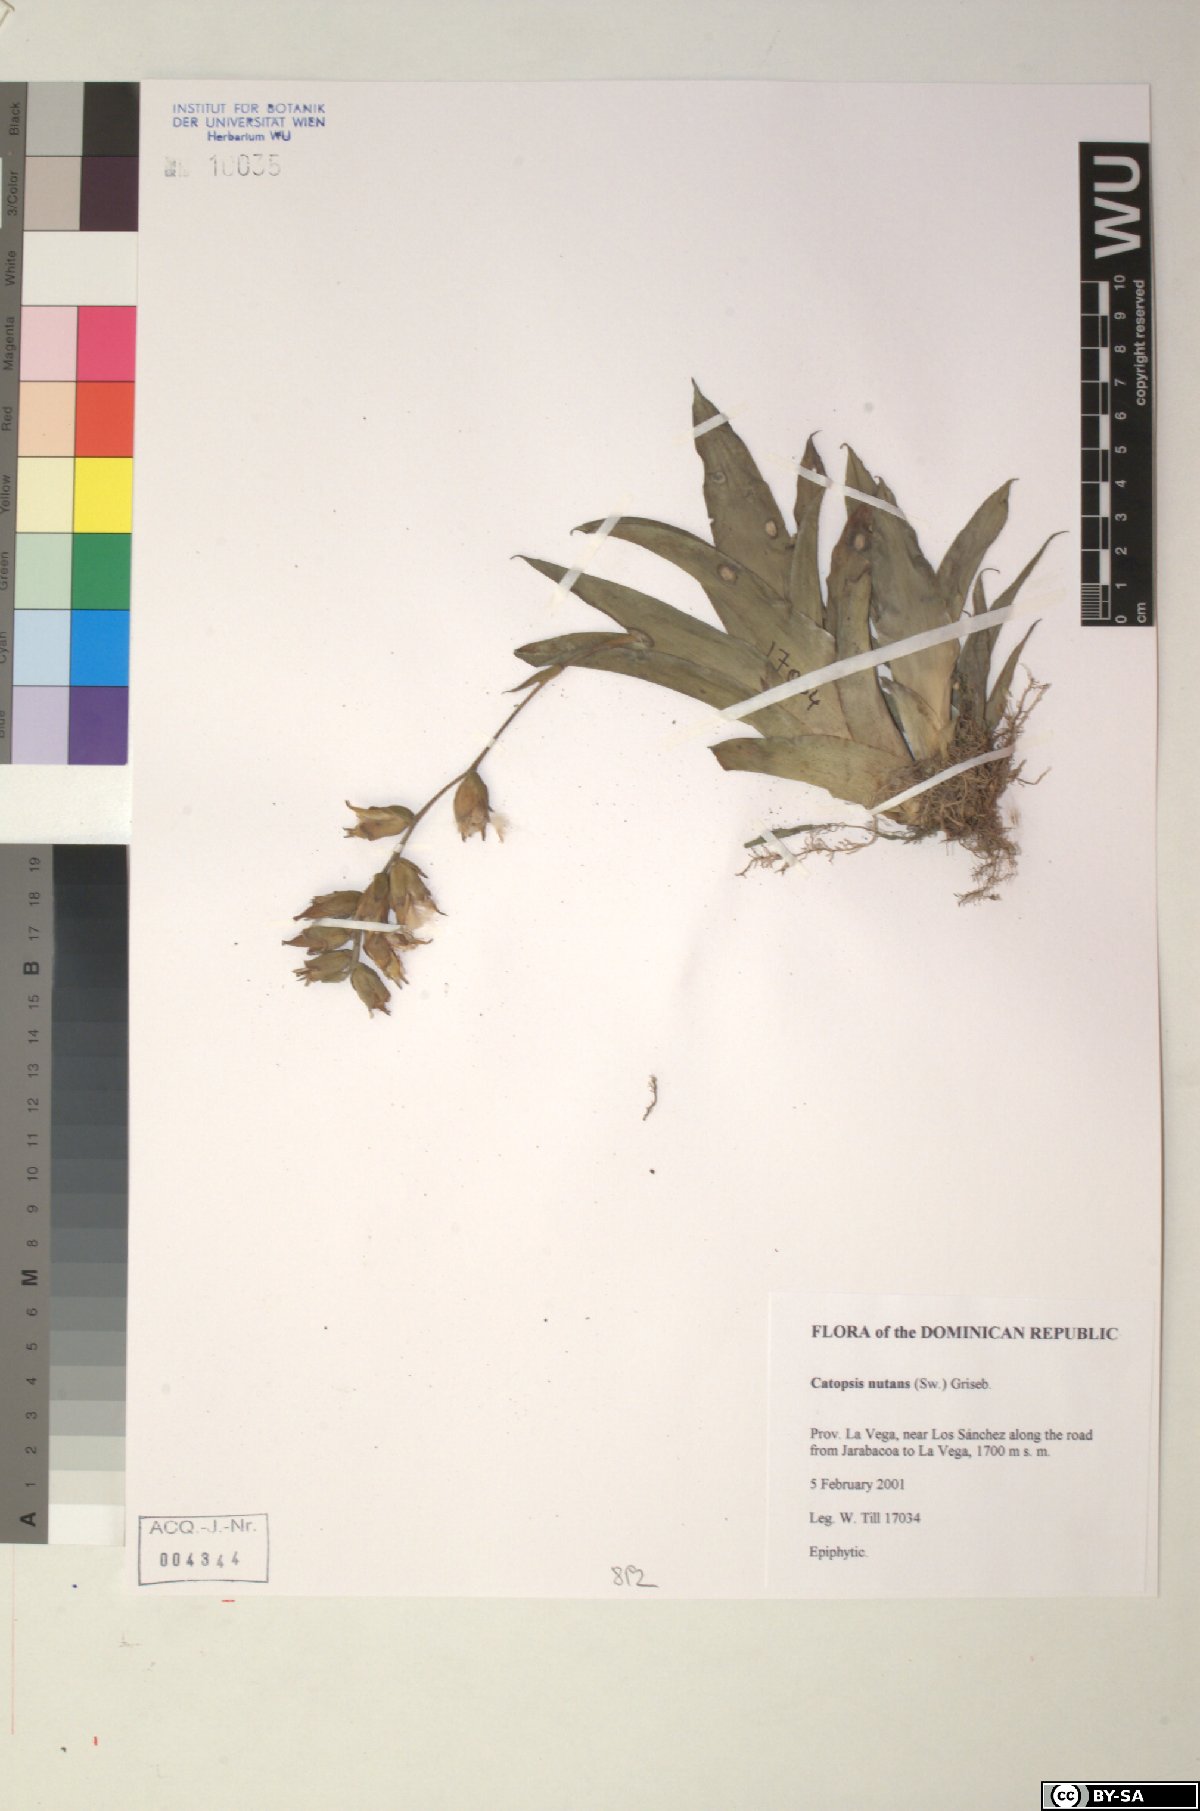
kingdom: Plantae
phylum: Tracheophyta
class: Liliopsida
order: Poales
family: Bromeliaceae
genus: Catopsis
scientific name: Catopsis nutans
